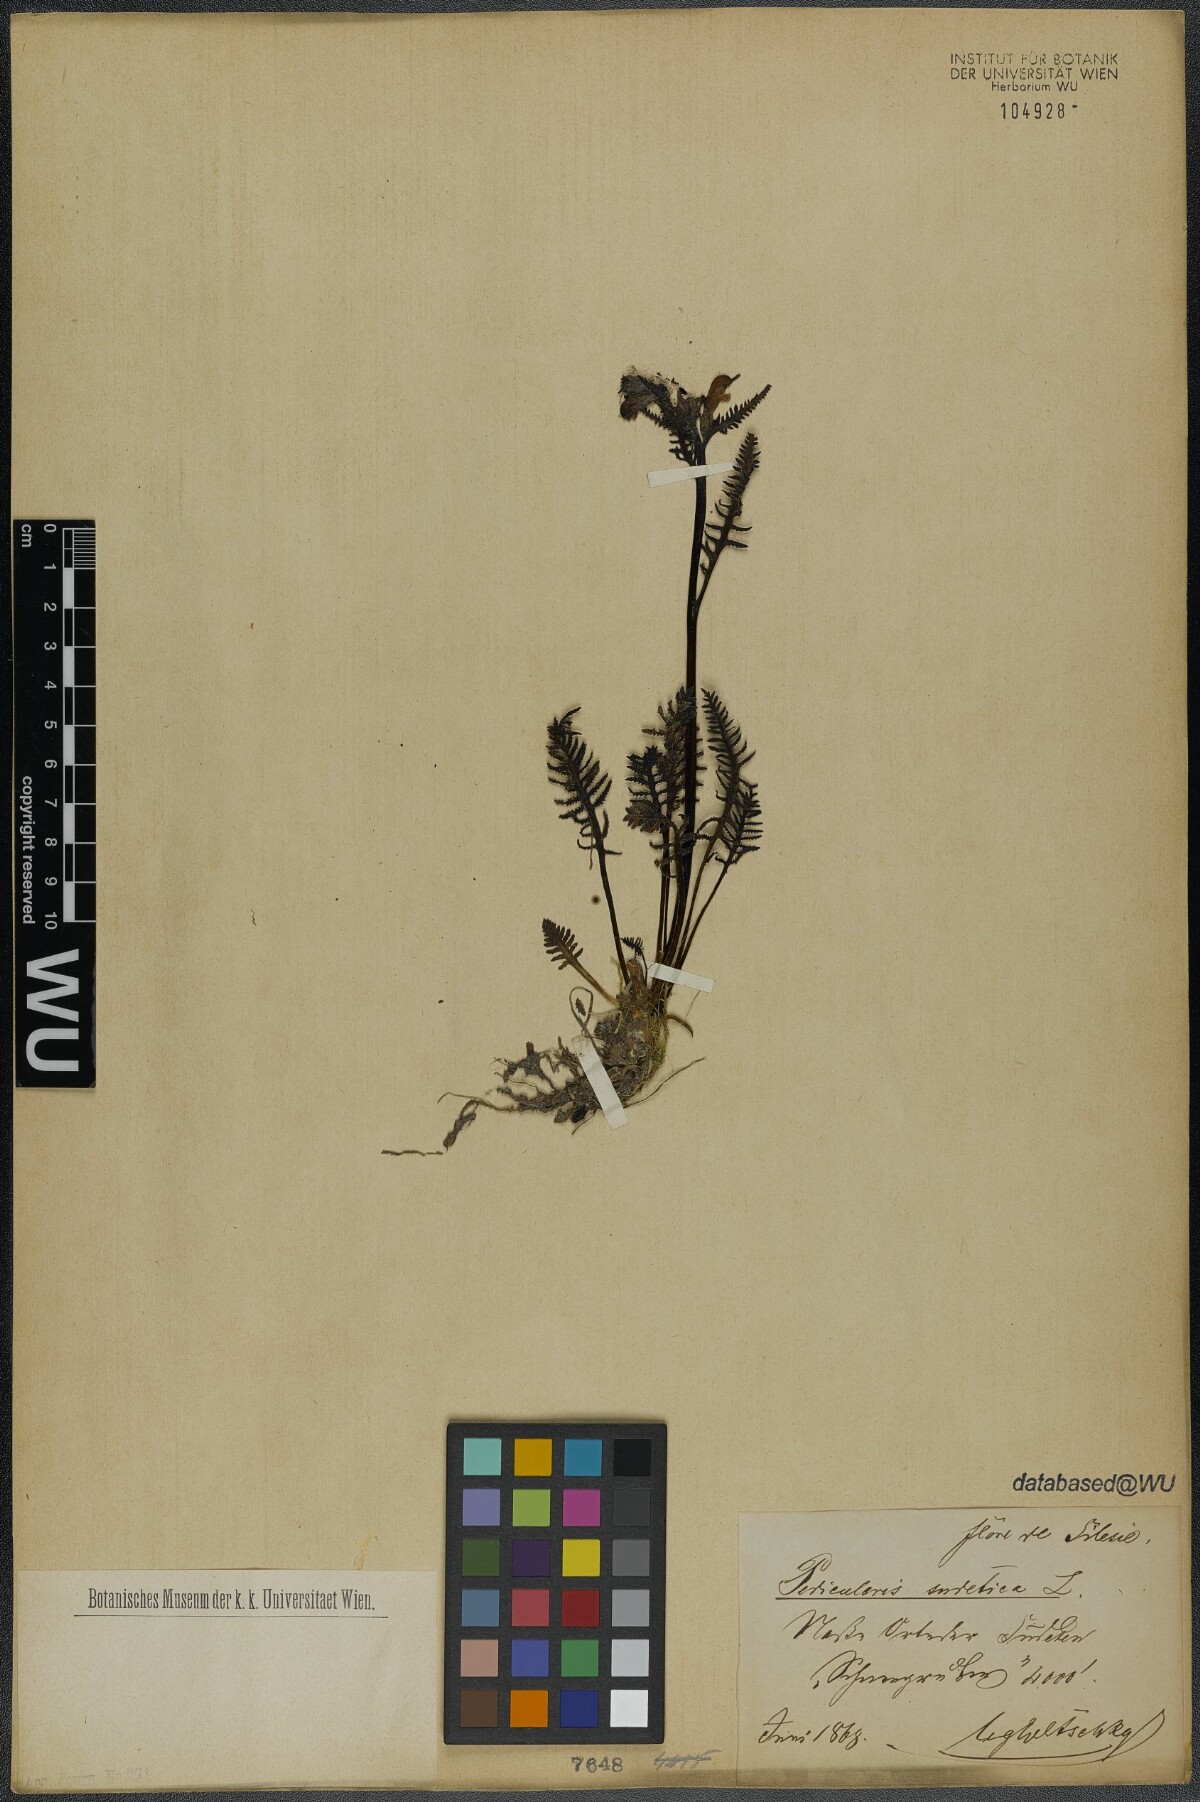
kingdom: Plantae
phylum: Tracheophyta
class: Magnoliopsida
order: Lamiales
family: Orobanchaceae
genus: Pedicularis
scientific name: Pedicularis sudetica
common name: Sudeten lousewort
